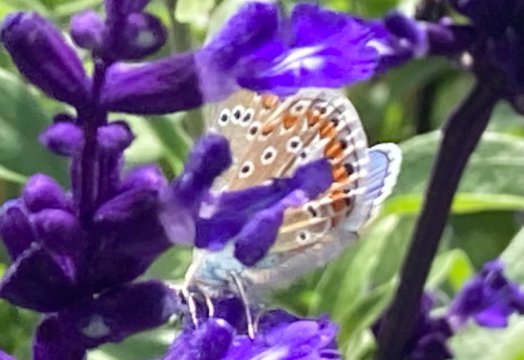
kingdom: Animalia
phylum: Arthropoda
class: Insecta
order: Lepidoptera
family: Lycaenidae
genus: Polyommatus
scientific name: Polyommatus icarus
